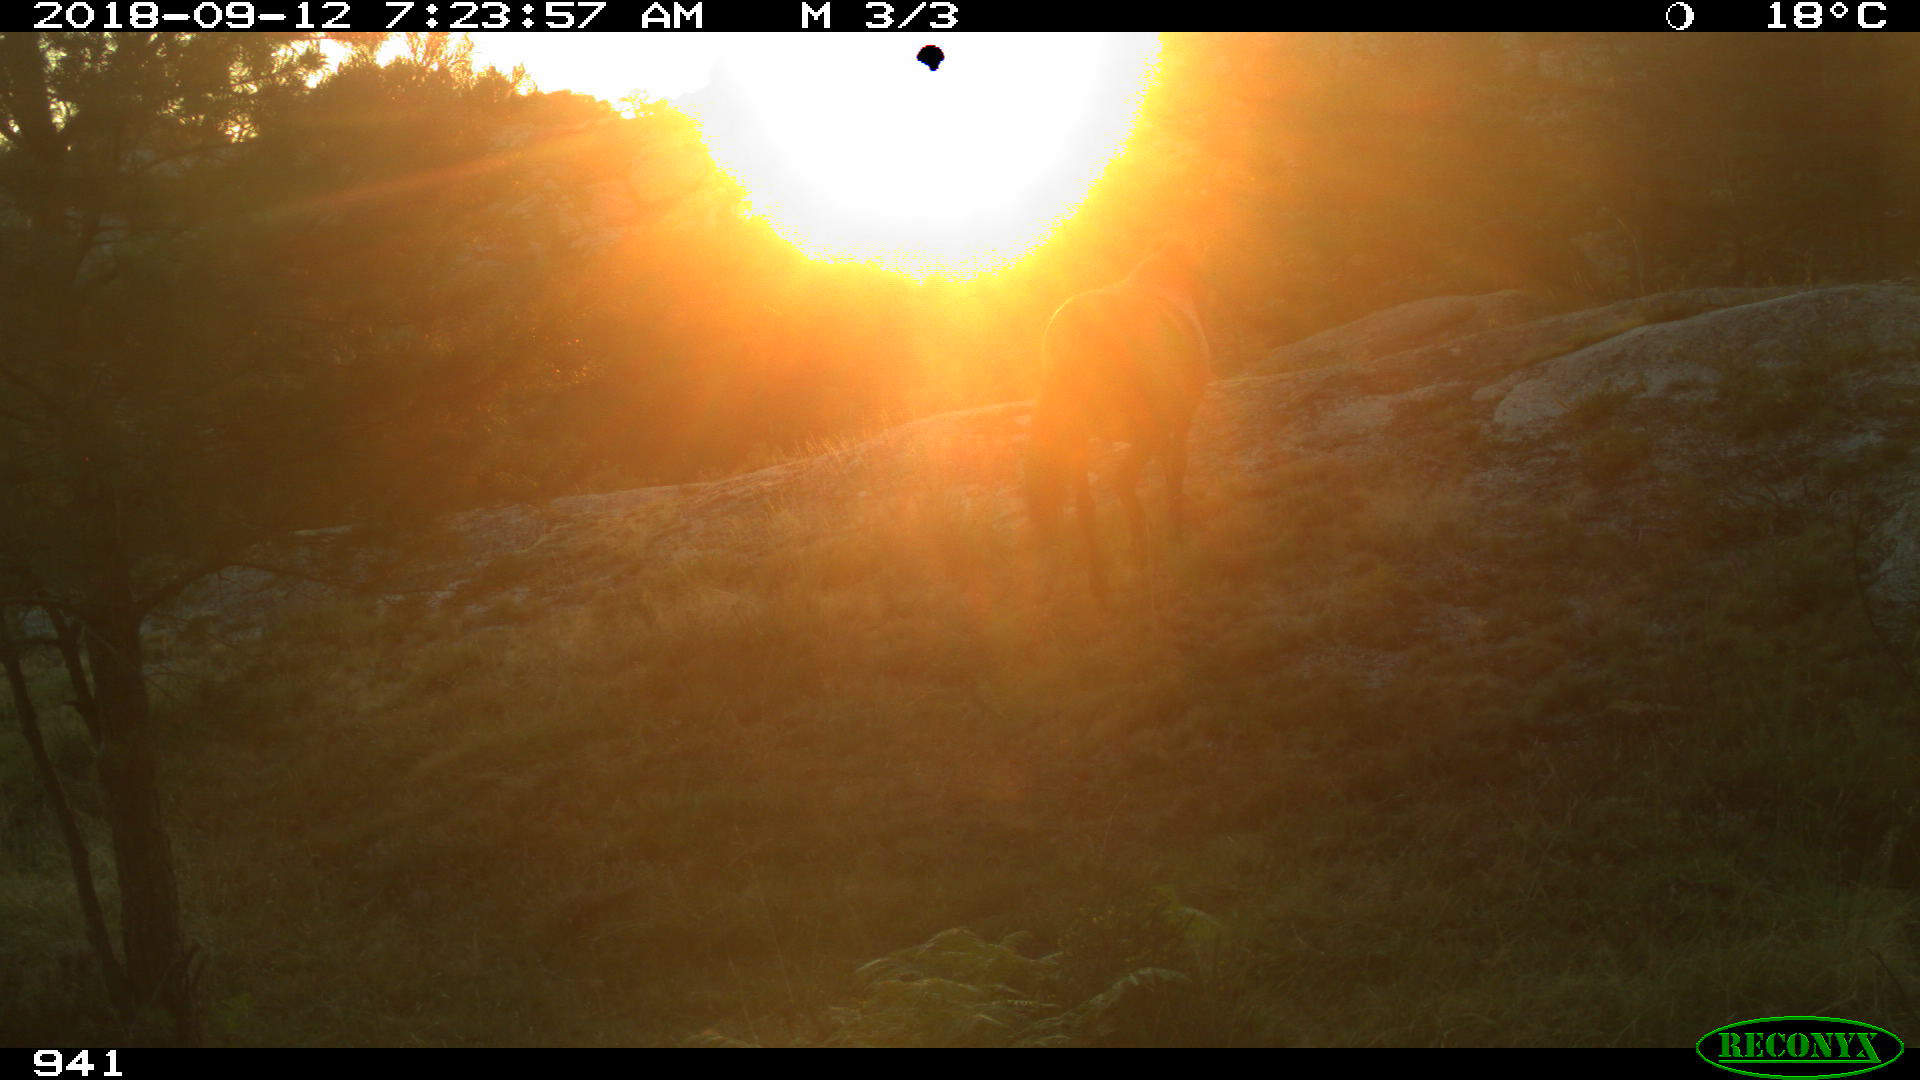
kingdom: Animalia
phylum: Chordata
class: Mammalia
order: Perissodactyla
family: Equidae
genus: Equus
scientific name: Equus caballus
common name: Horse
